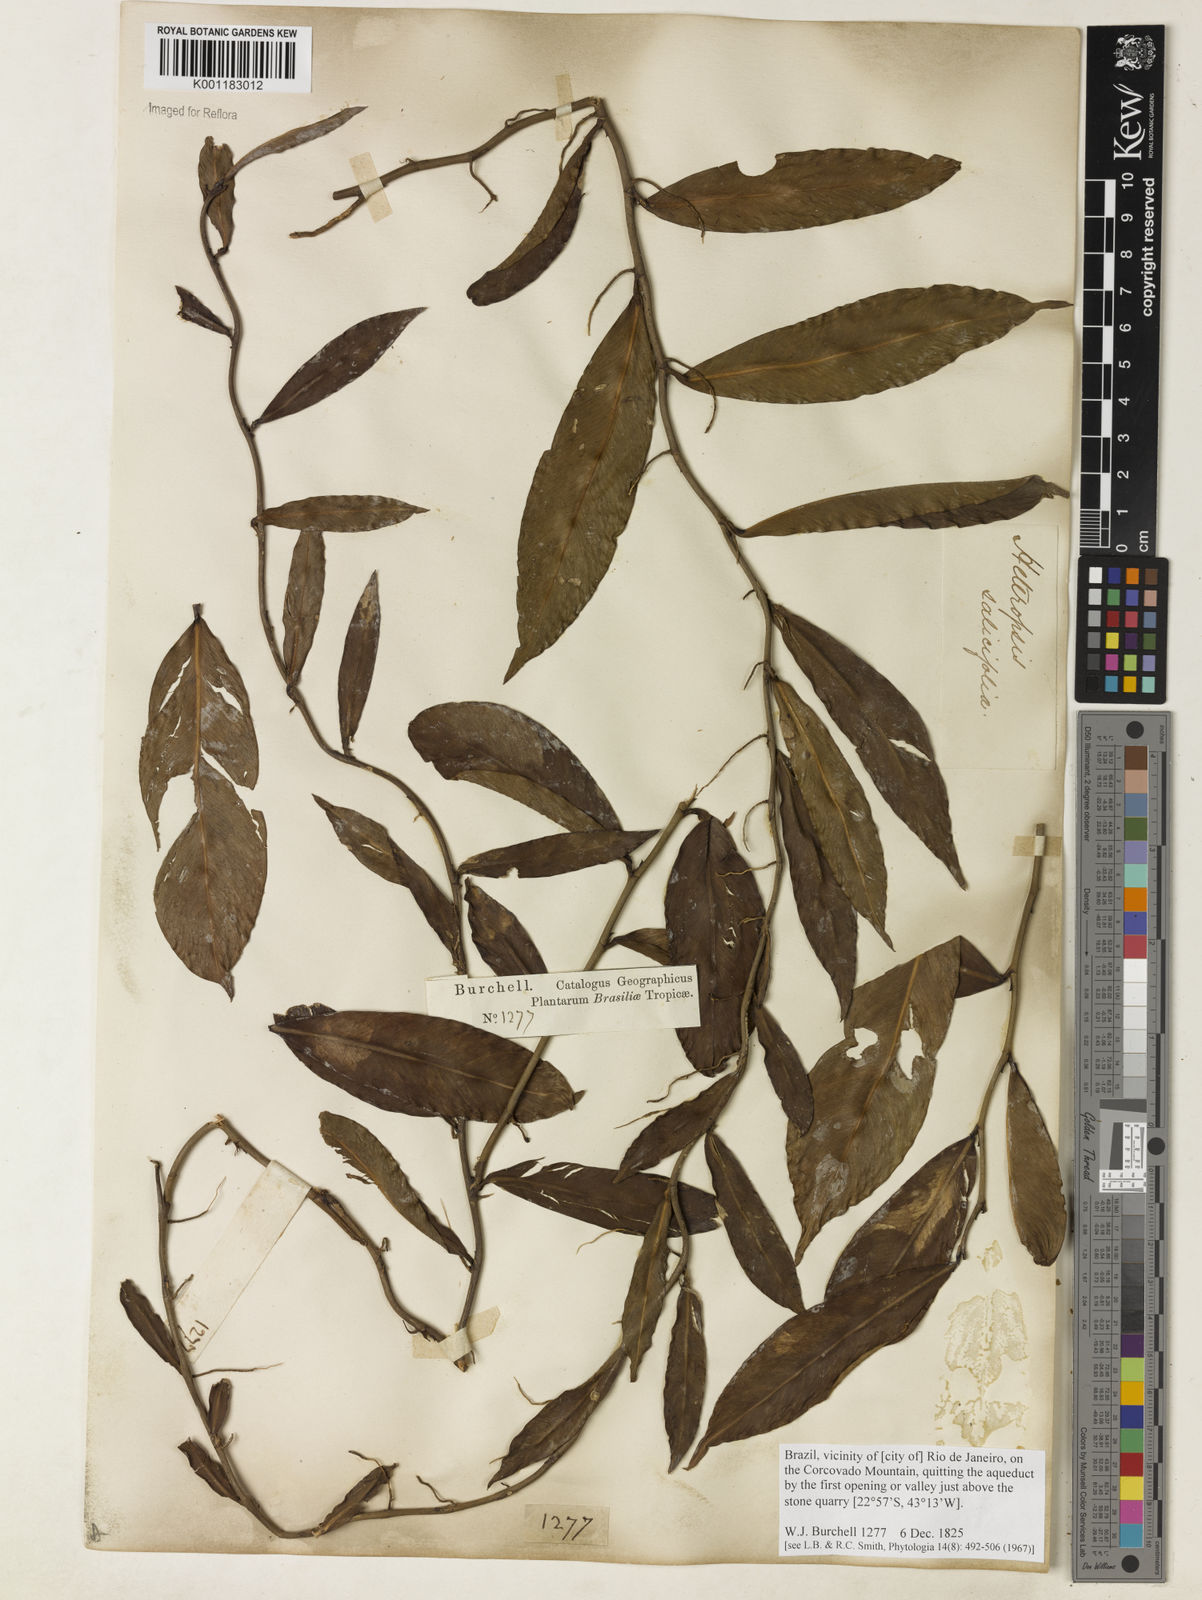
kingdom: Plantae
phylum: Tracheophyta
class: Liliopsida
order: Alismatales
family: Araceae
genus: Heteropsis
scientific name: Heteropsis salicifolia
